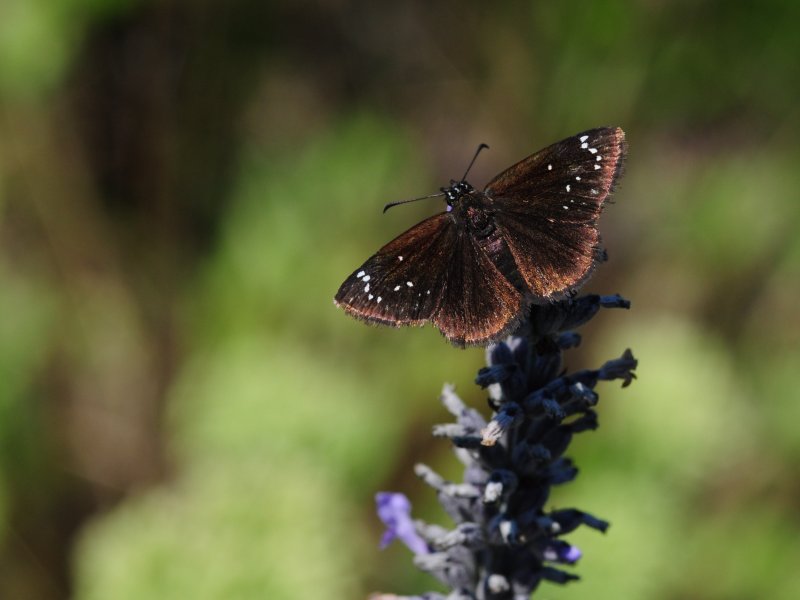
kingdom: Animalia
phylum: Arthropoda
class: Insecta
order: Lepidoptera
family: Hesperiidae
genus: Pholisora
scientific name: Pholisora catullus
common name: Common Sootywing
